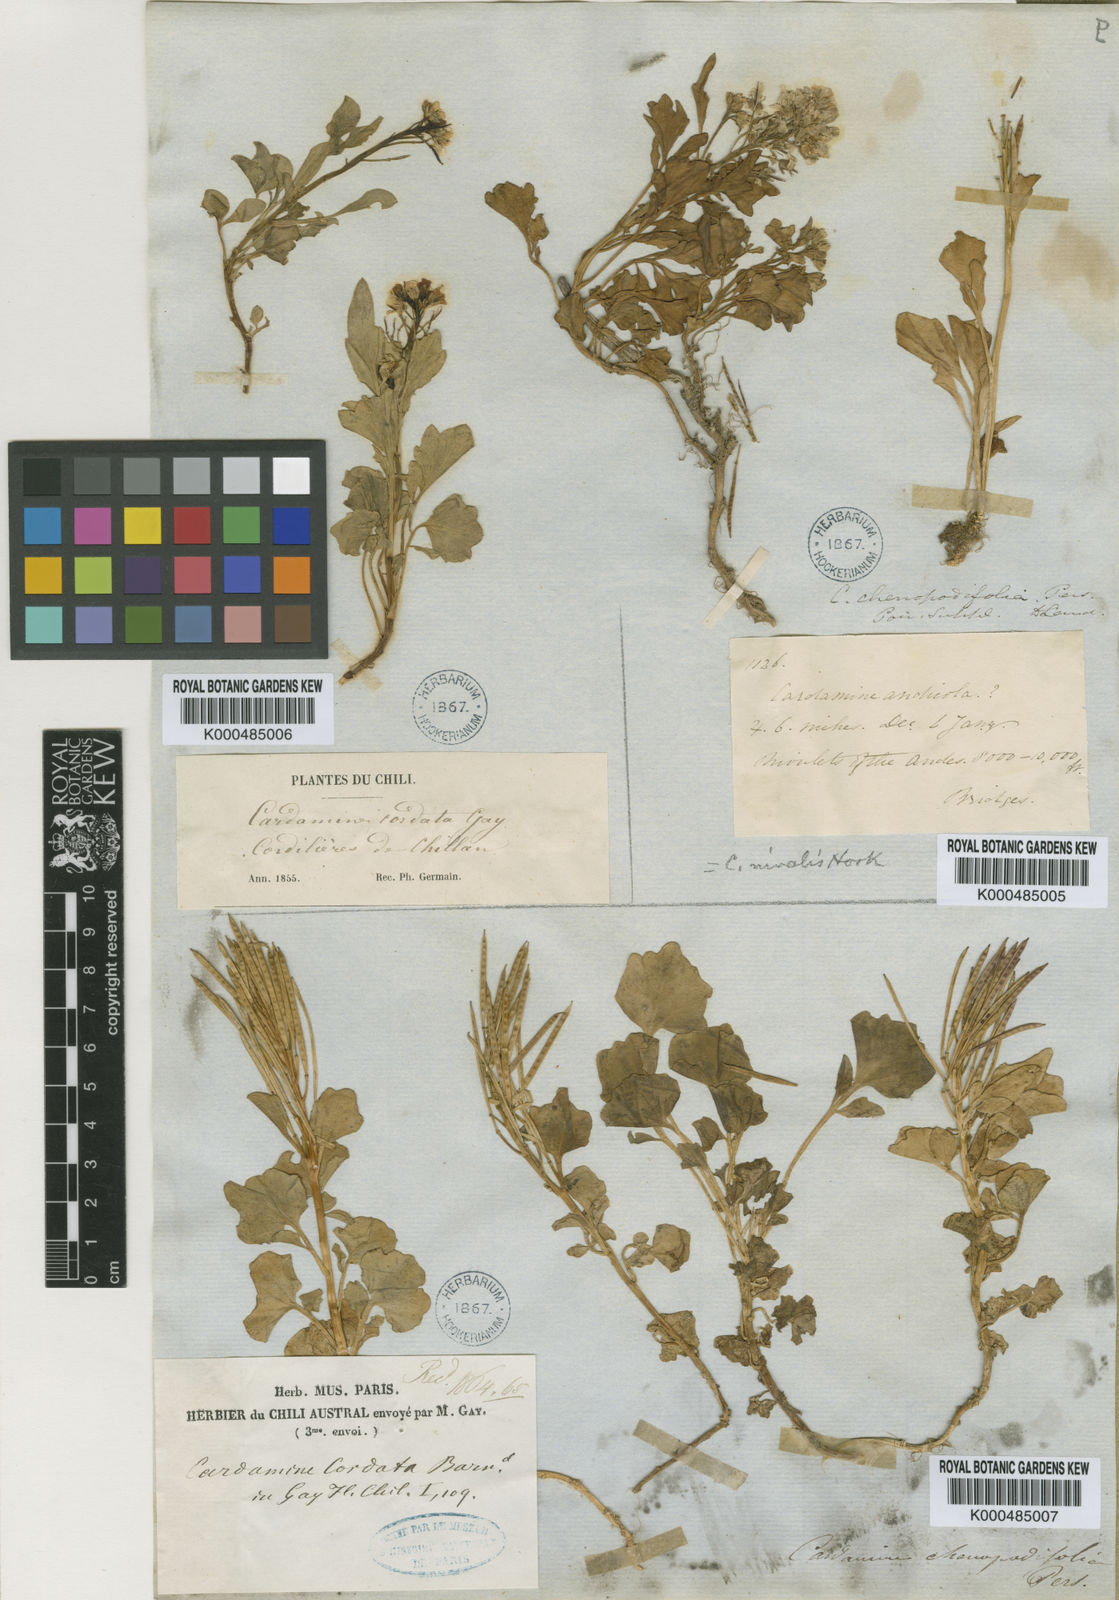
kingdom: Plantae
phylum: Tracheophyta
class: Magnoliopsida
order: Brassicales
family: Brassicaceae
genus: Cardamine
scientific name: Cardamine
